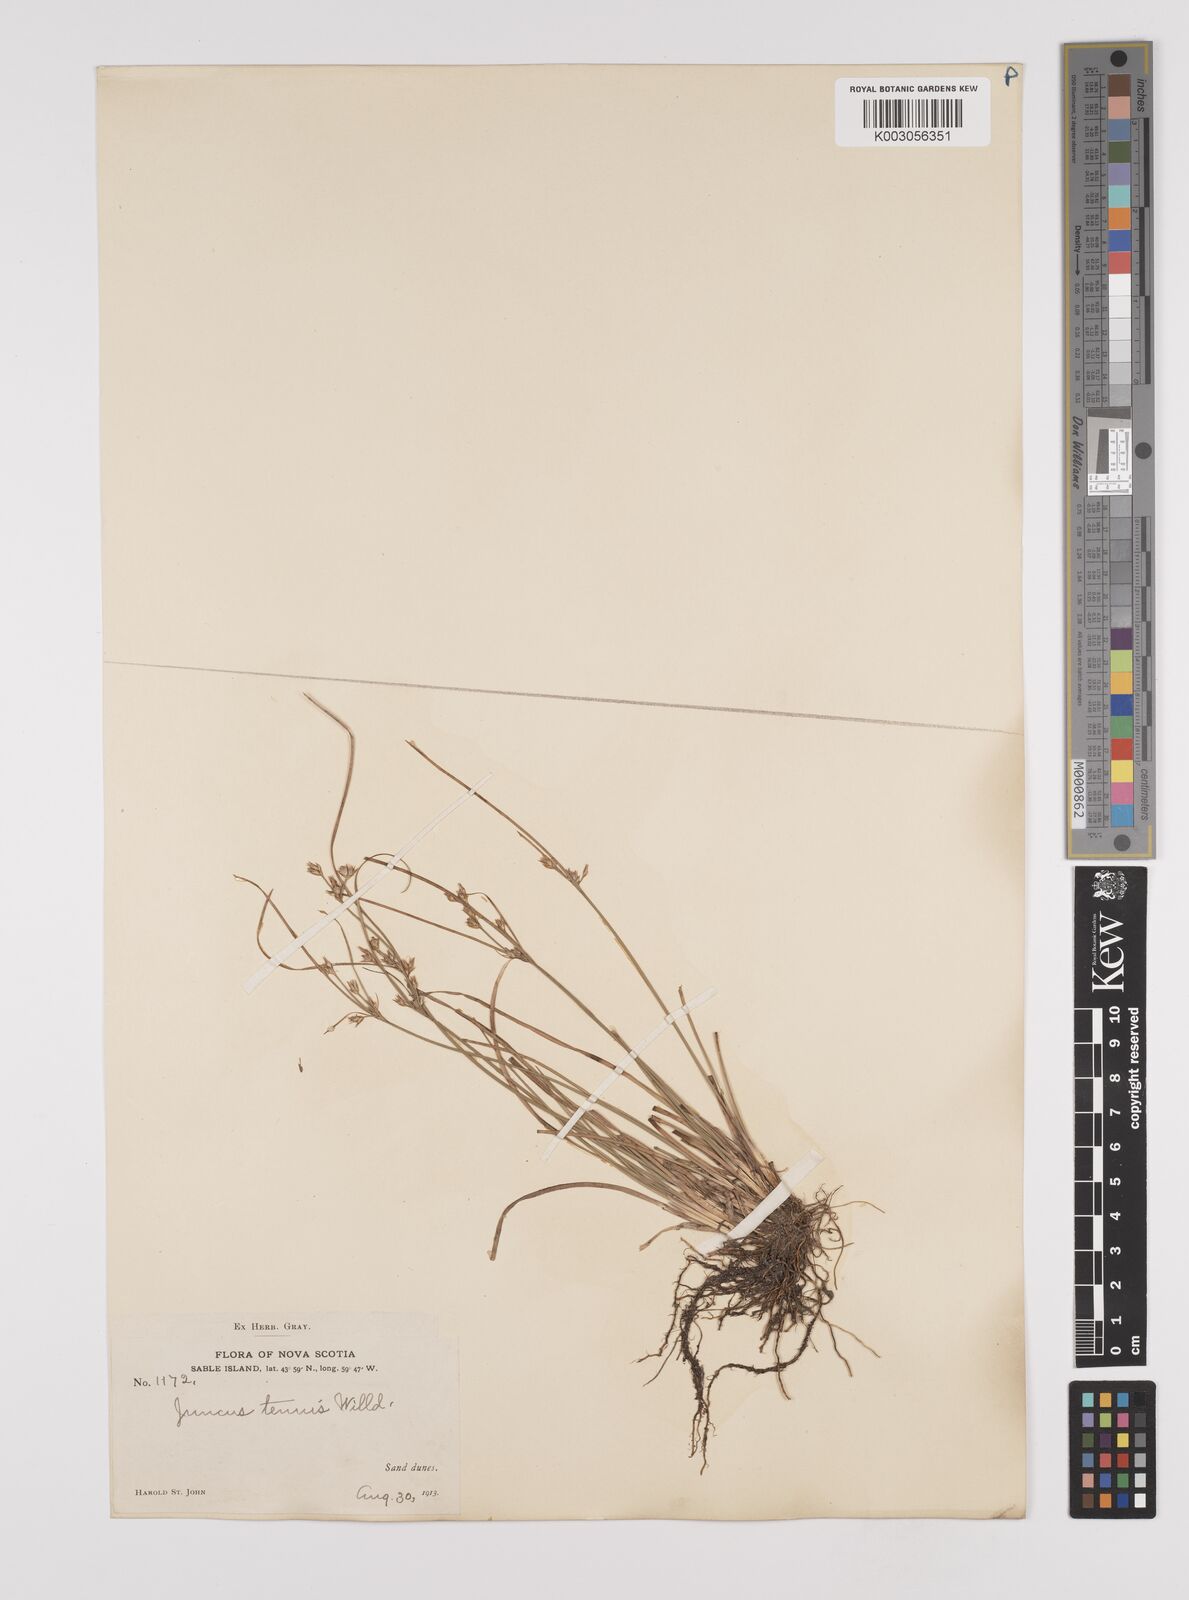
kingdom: Plantae
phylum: Tracheophyta
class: Liliopsida
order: Poales
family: Juncaceae
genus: Juncus
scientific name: Juncus tenuis
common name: Slender rush
